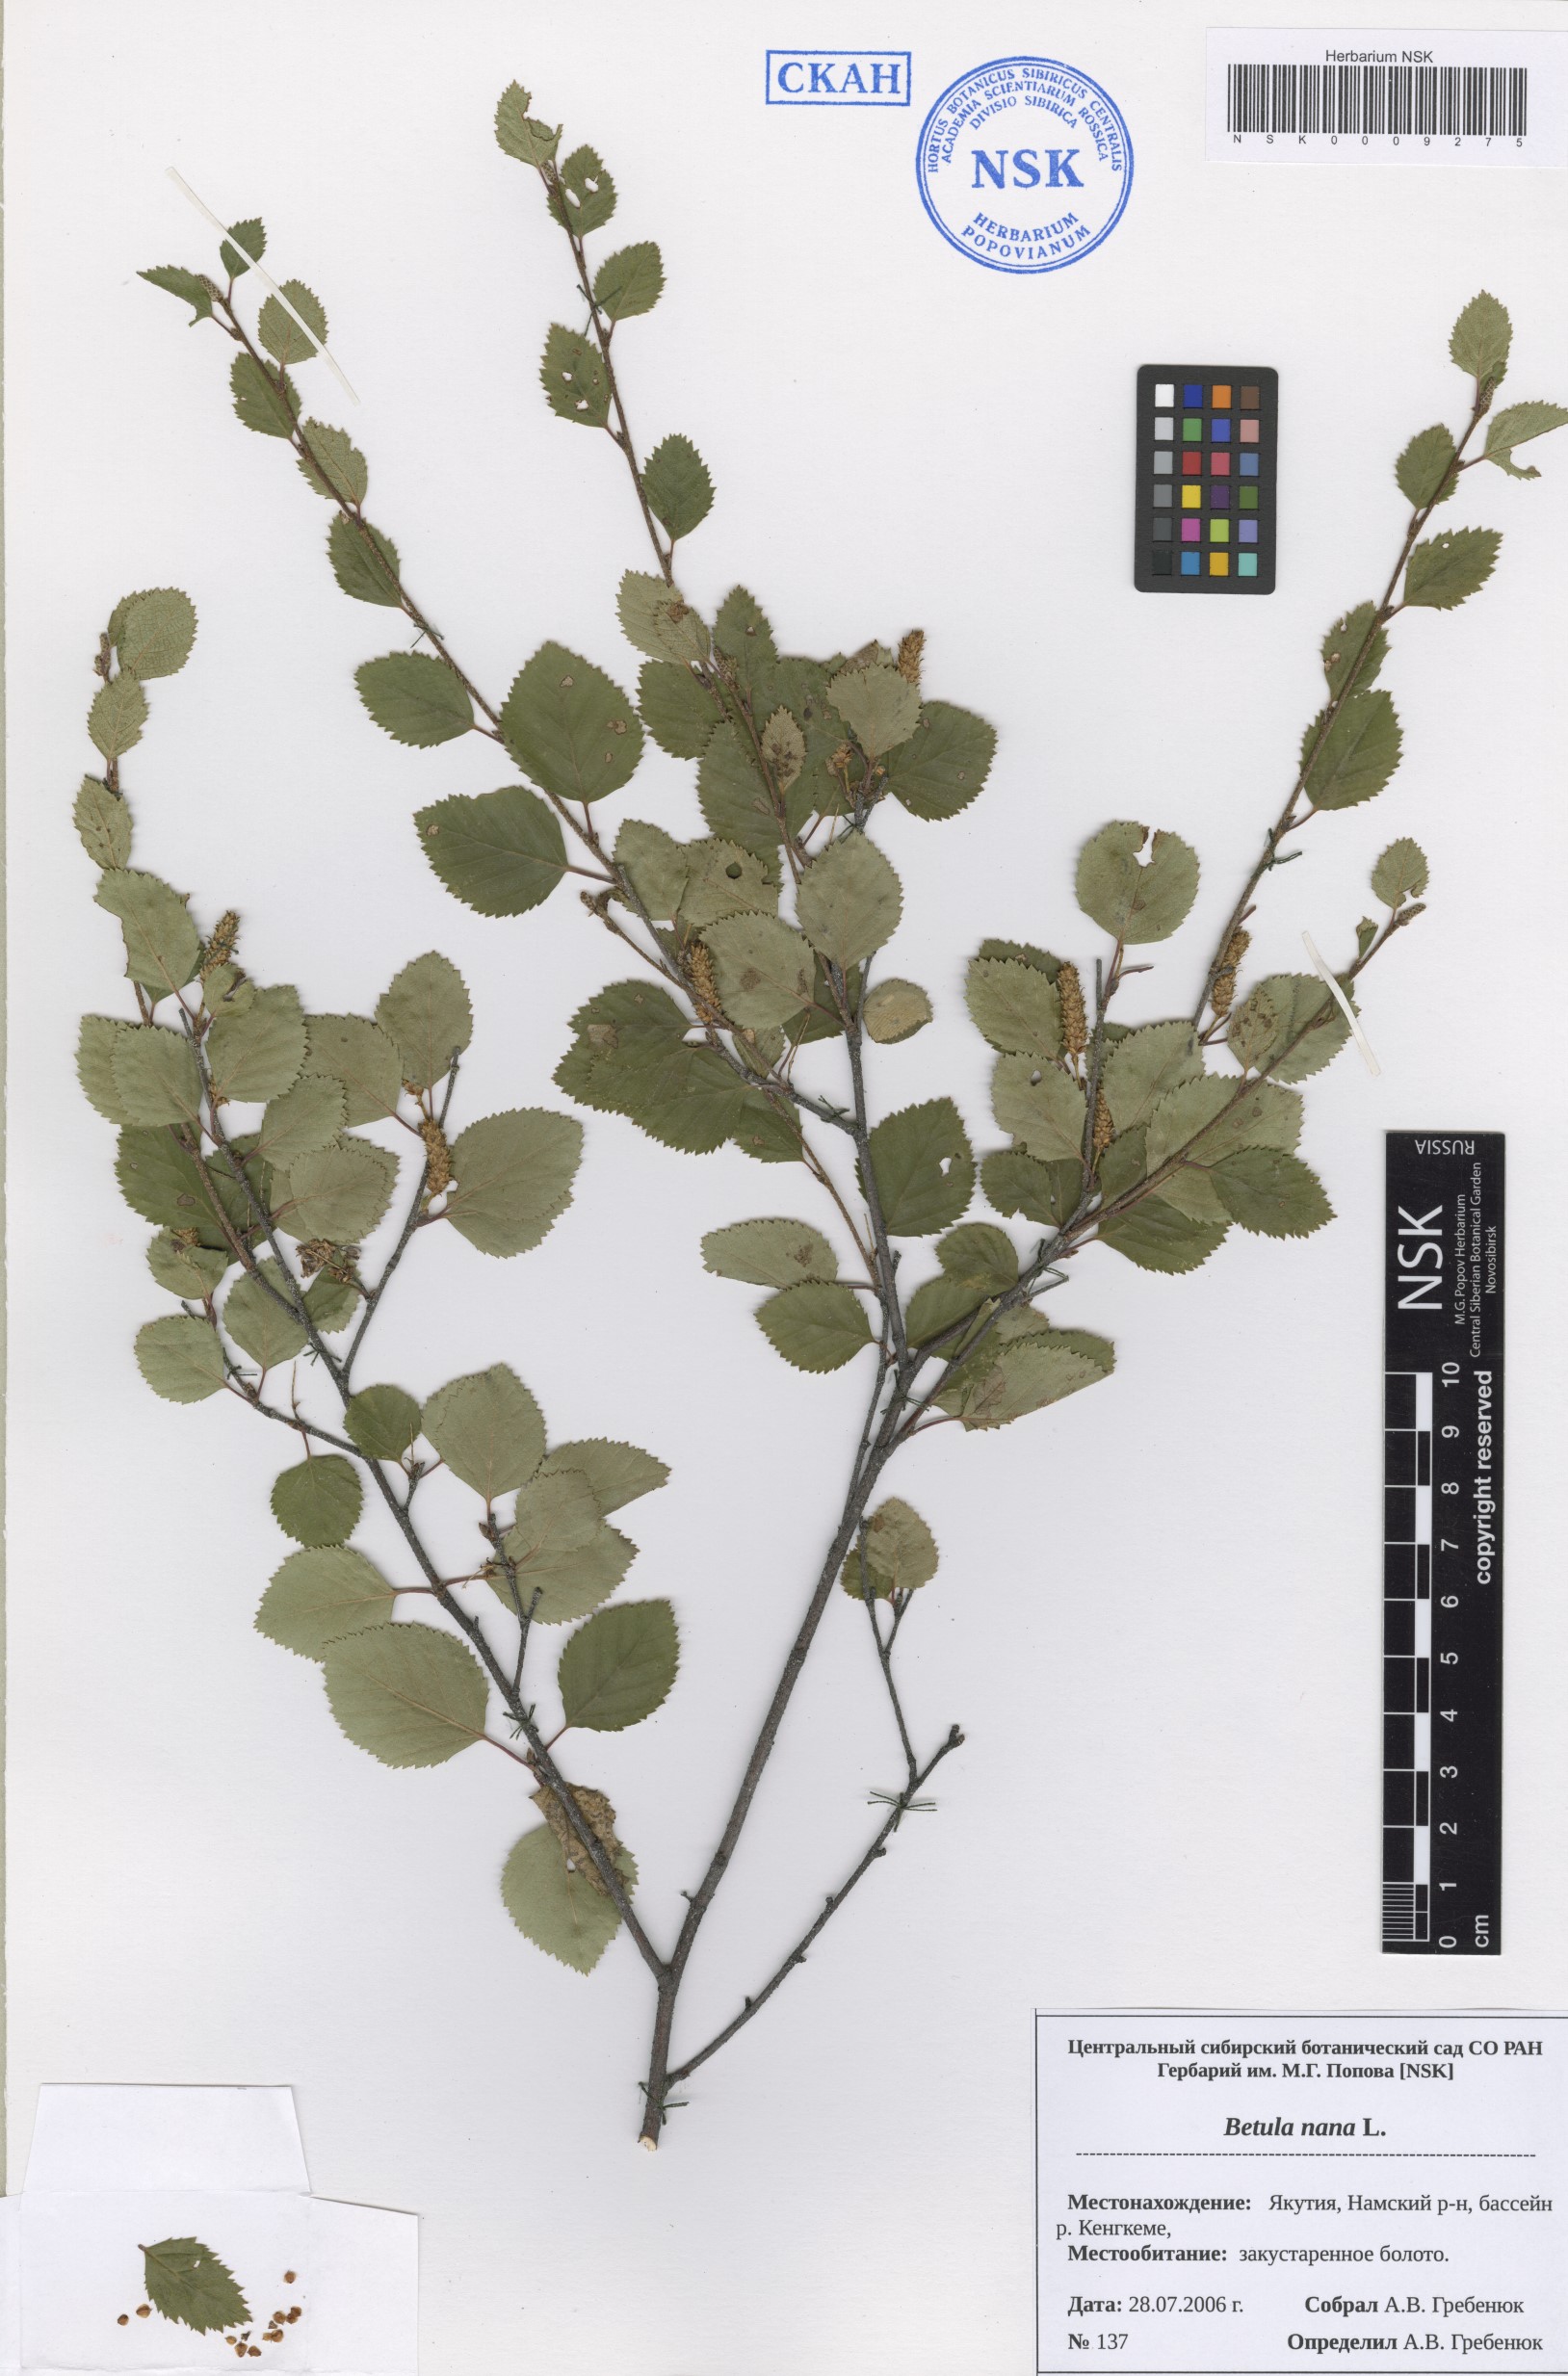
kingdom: Plantae
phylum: Tracheophyta
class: Magnoliopsida
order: Fagales
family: Betulaceae
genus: Betula
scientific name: Betula nana
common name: Arctic dwarf birch
